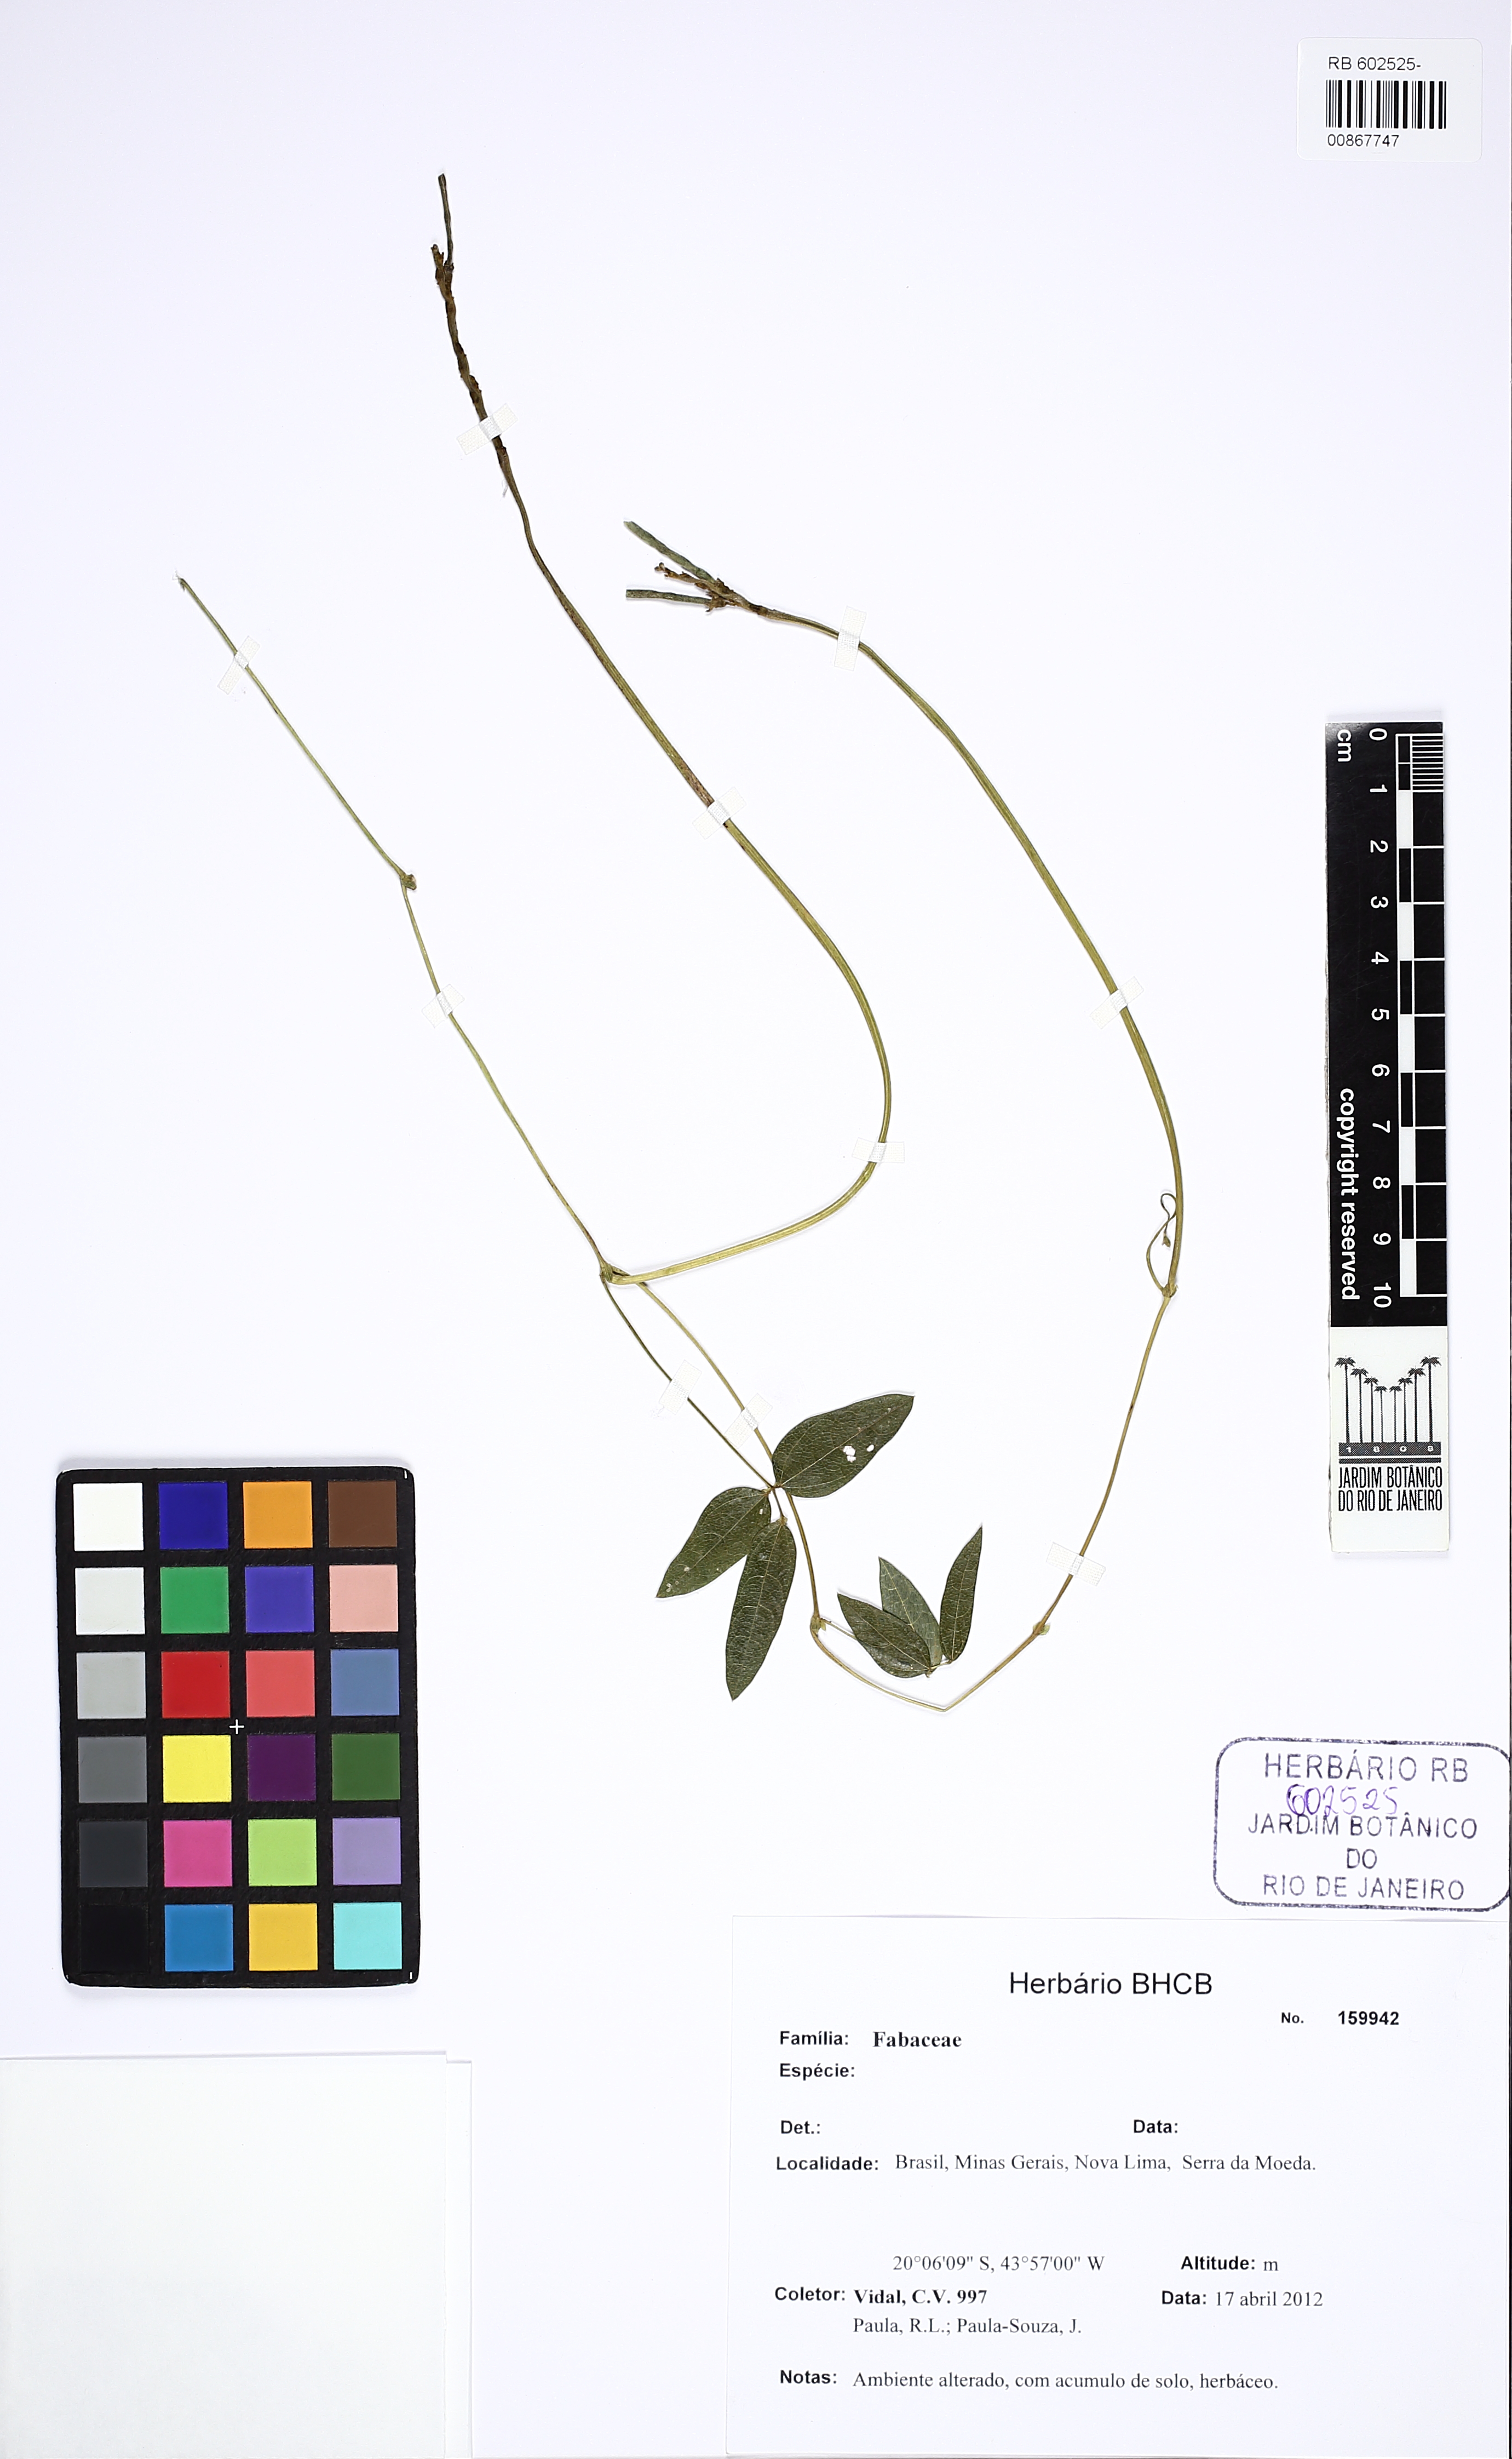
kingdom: Plantae
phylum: Tracheophyta
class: Magnoliopsida
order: Fabales
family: Fabaceae
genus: Macroptilium
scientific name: Macroptilium
